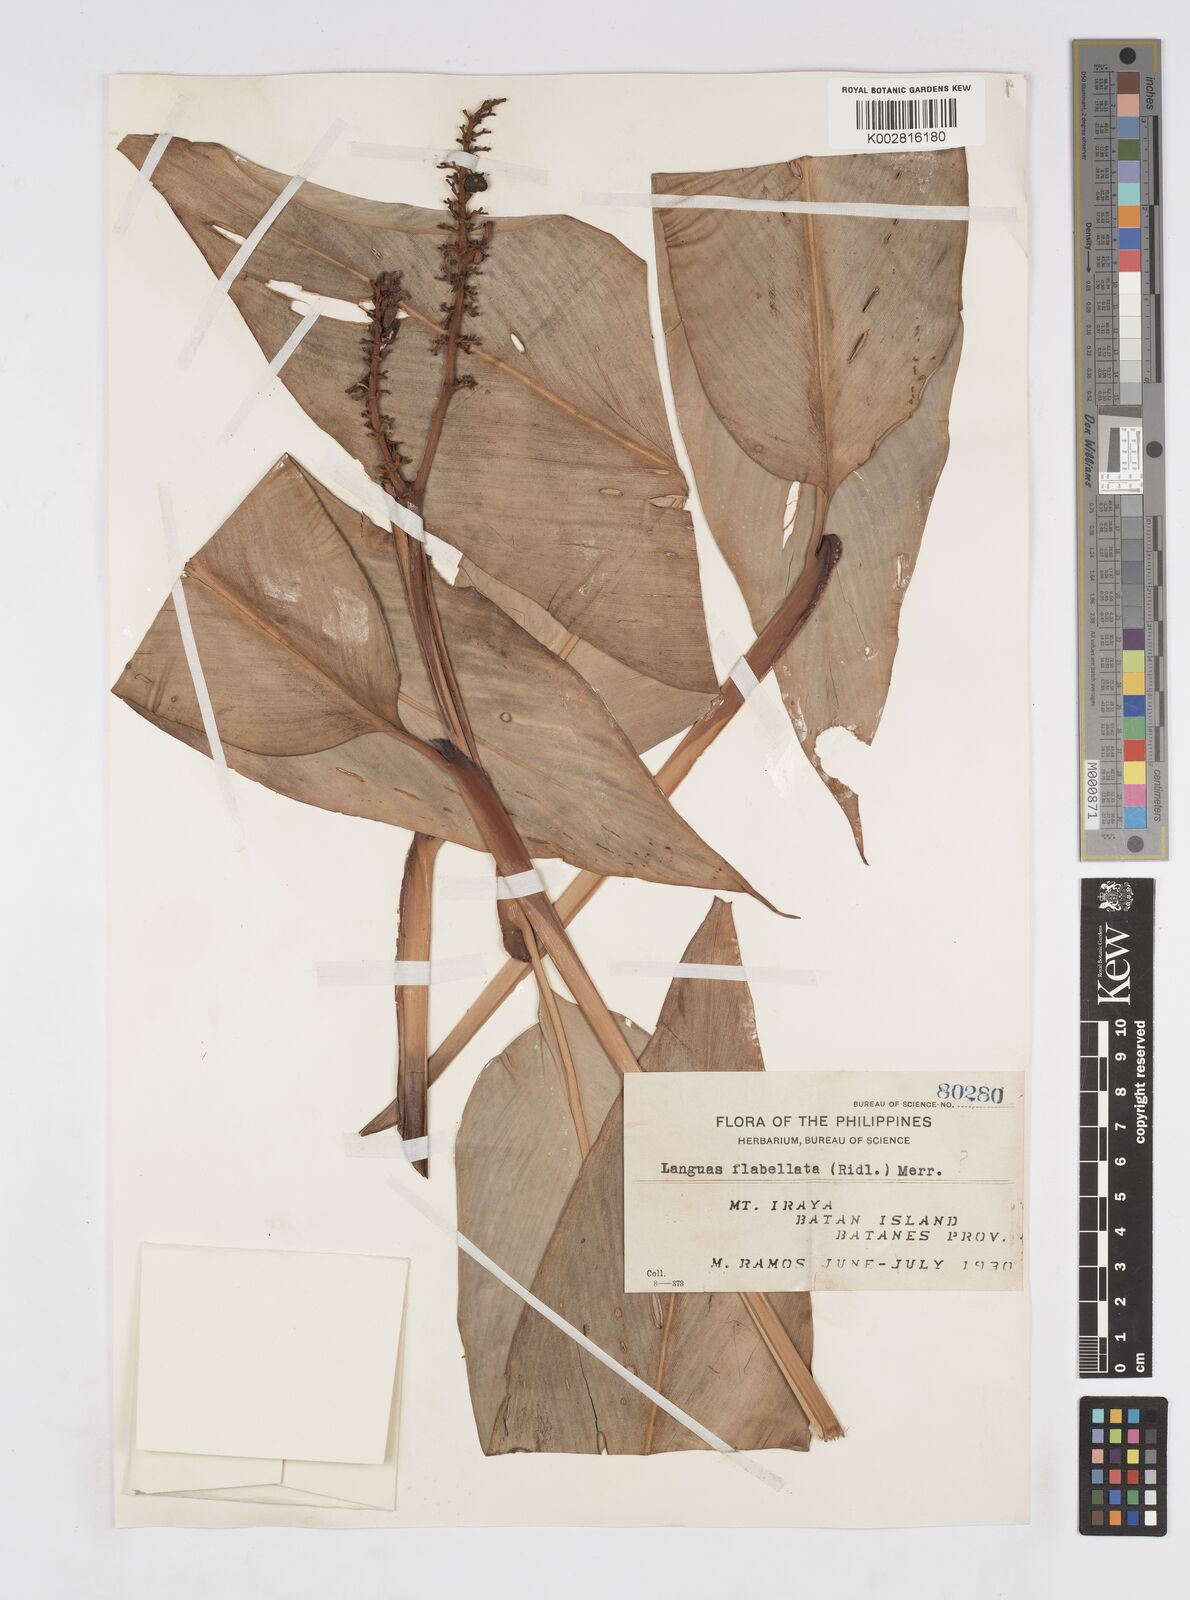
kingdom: Plantae
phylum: Tracheophyta
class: Liliopsida
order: Zingiberales
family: Zingiberaceae
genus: Alpinia
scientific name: Alpinia flabellata
